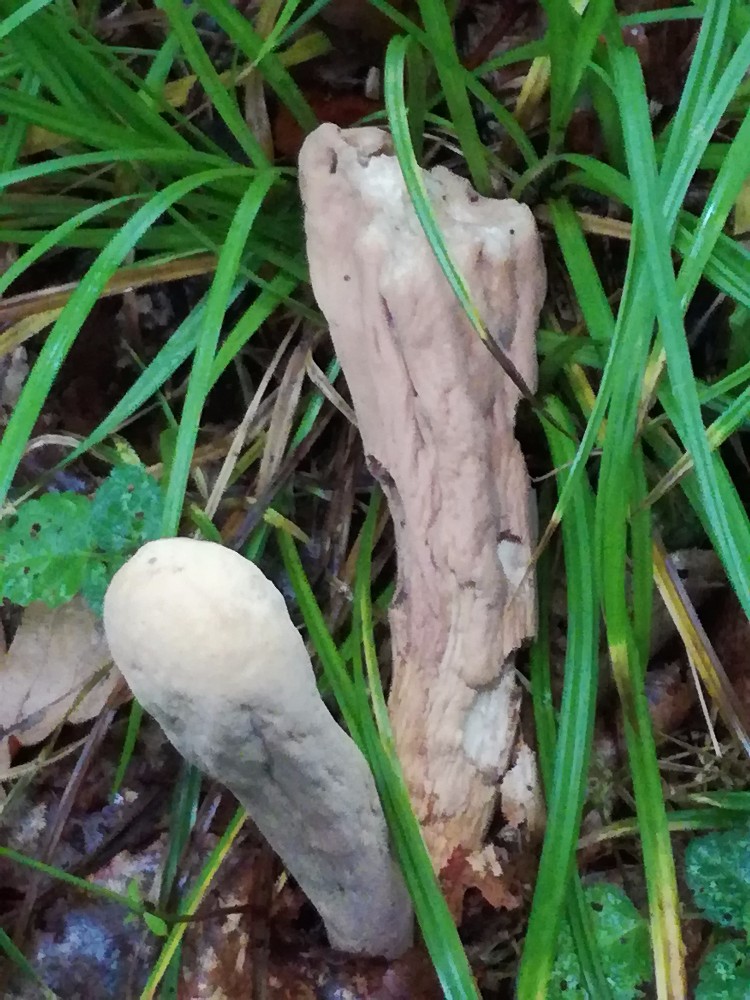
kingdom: Fungi
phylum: Basidiomycota
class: Agaricomycetes
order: Gomphales
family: Clavariadelphaceae
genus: Clavariadelphus
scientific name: Clavariadelphus pistillaris
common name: herkules-kæmpekølle
